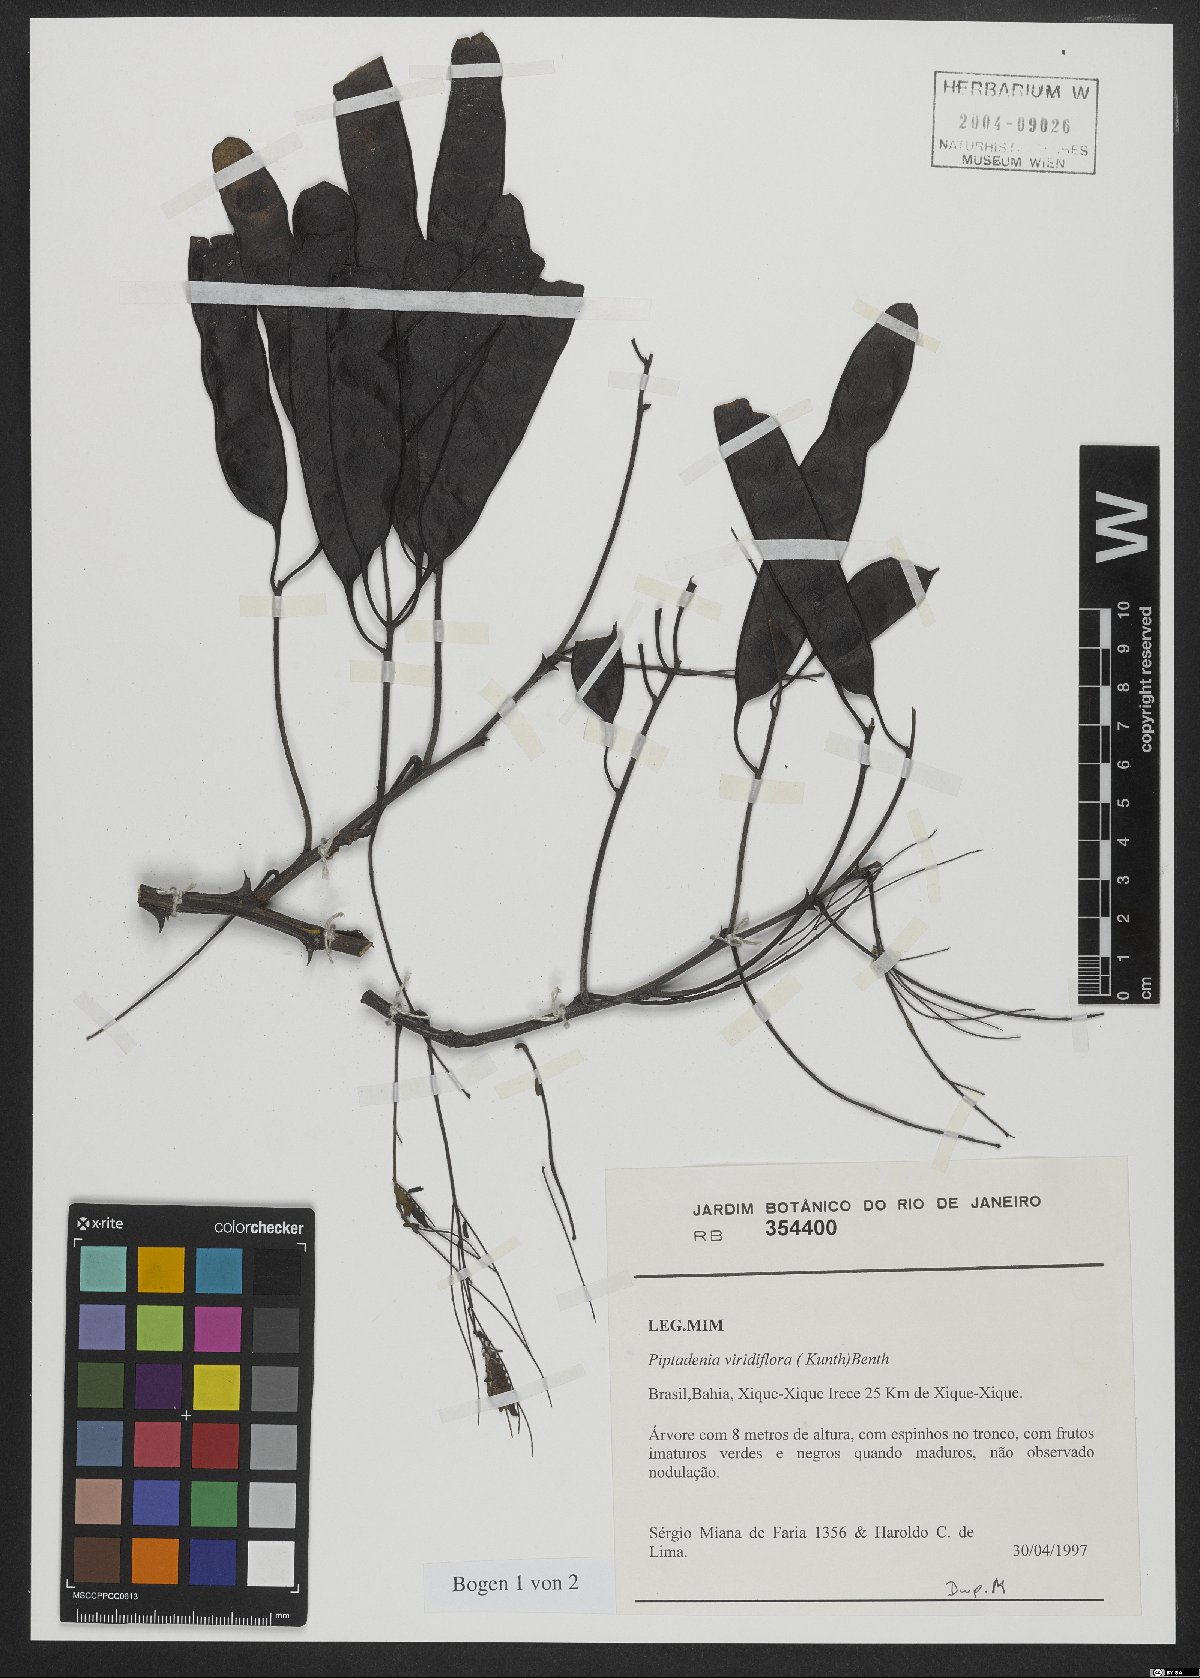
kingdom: Plantae
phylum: Tracheophyta
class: Magnoliopsida
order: Fabales
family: Fabaceae
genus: Lachesiodendron
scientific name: Lachesiodendron viridiflorum
